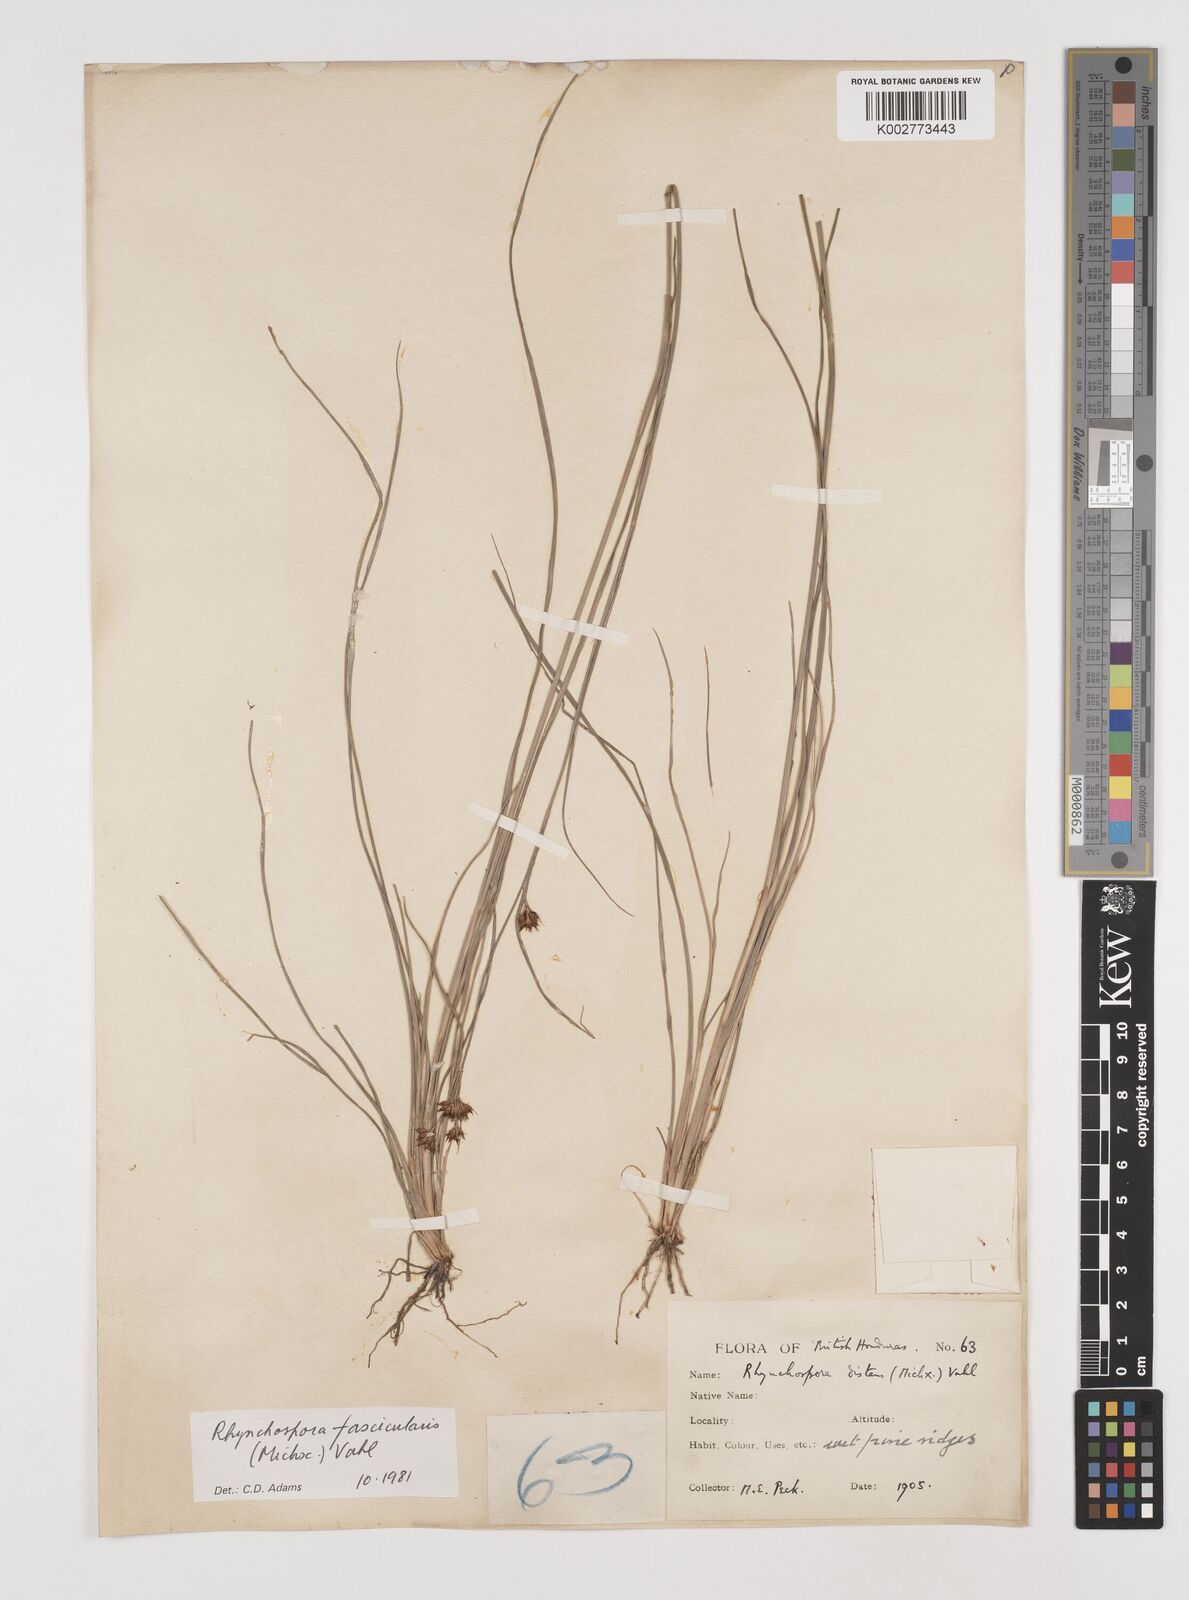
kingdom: Plantae
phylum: Tracheophyta
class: Liliopsida
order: Poales
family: Cyperaceae
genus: Rhynchospora
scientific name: Rhynchospora fascicularis
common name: Fascicled beak sedge
